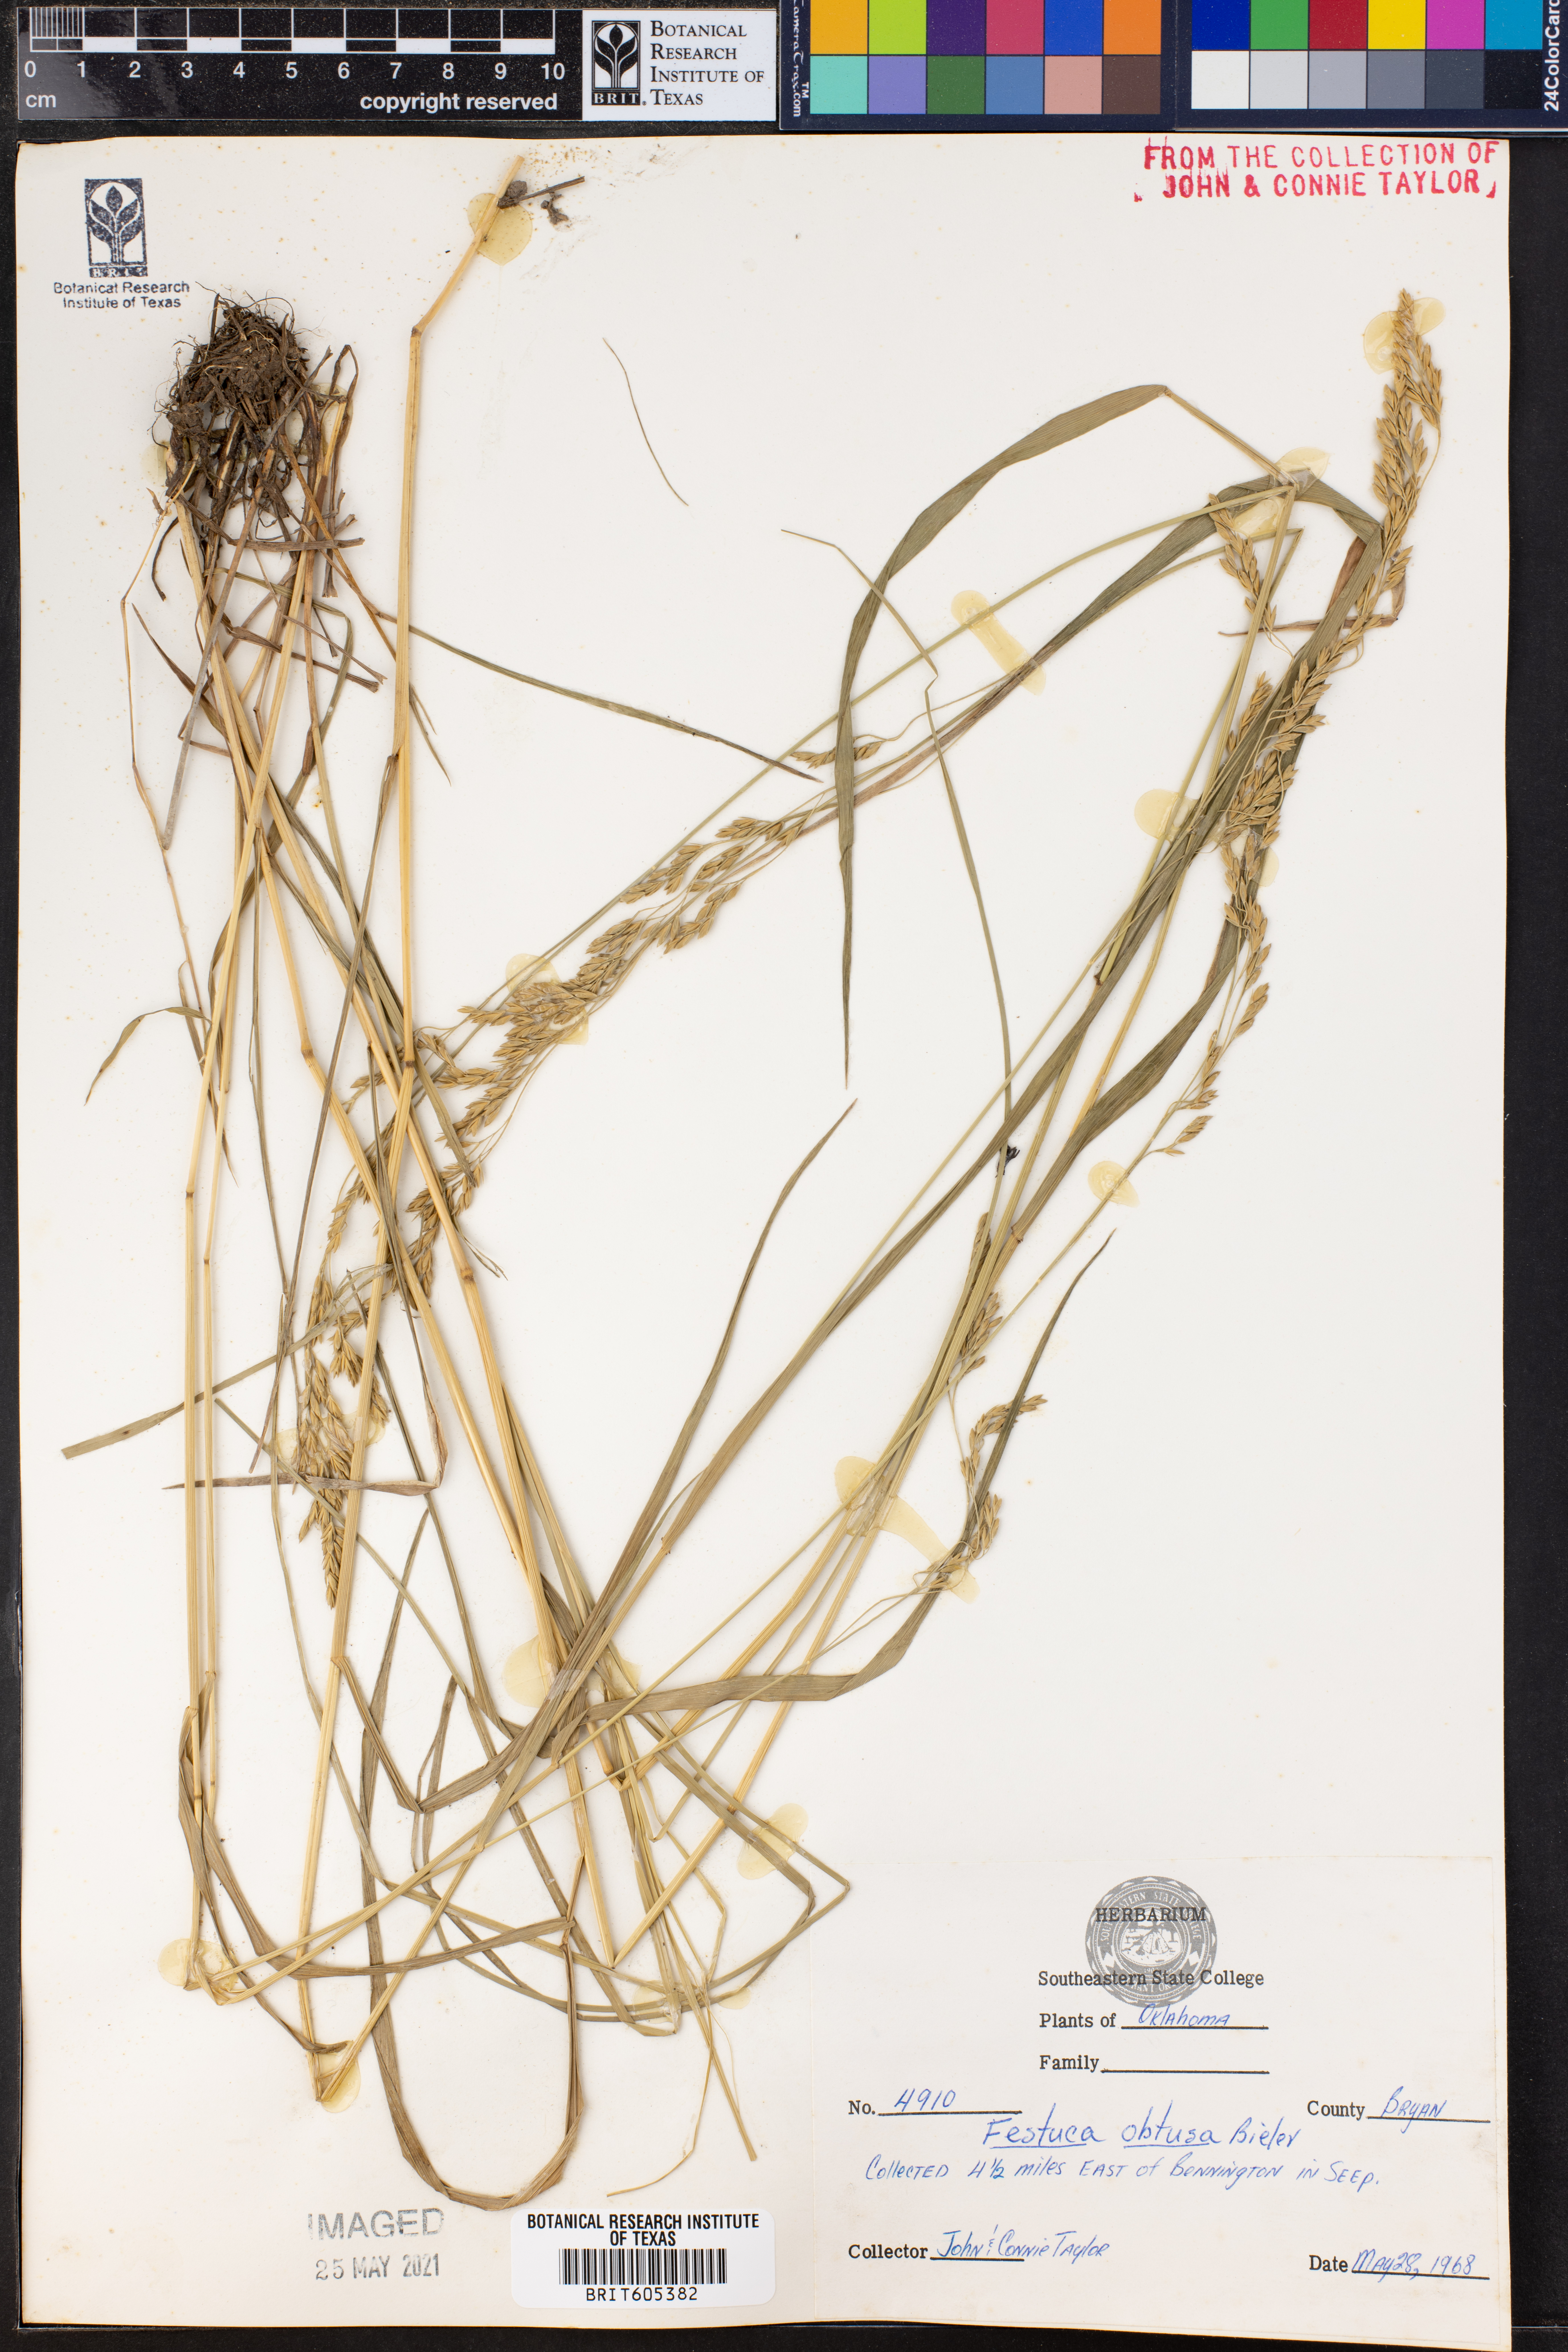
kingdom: Plantae
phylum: Tracheophyta
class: Liliopsida
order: Poales
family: Poaceae
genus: Festuca
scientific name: Festuca subverticillata
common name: Nodding fescue
